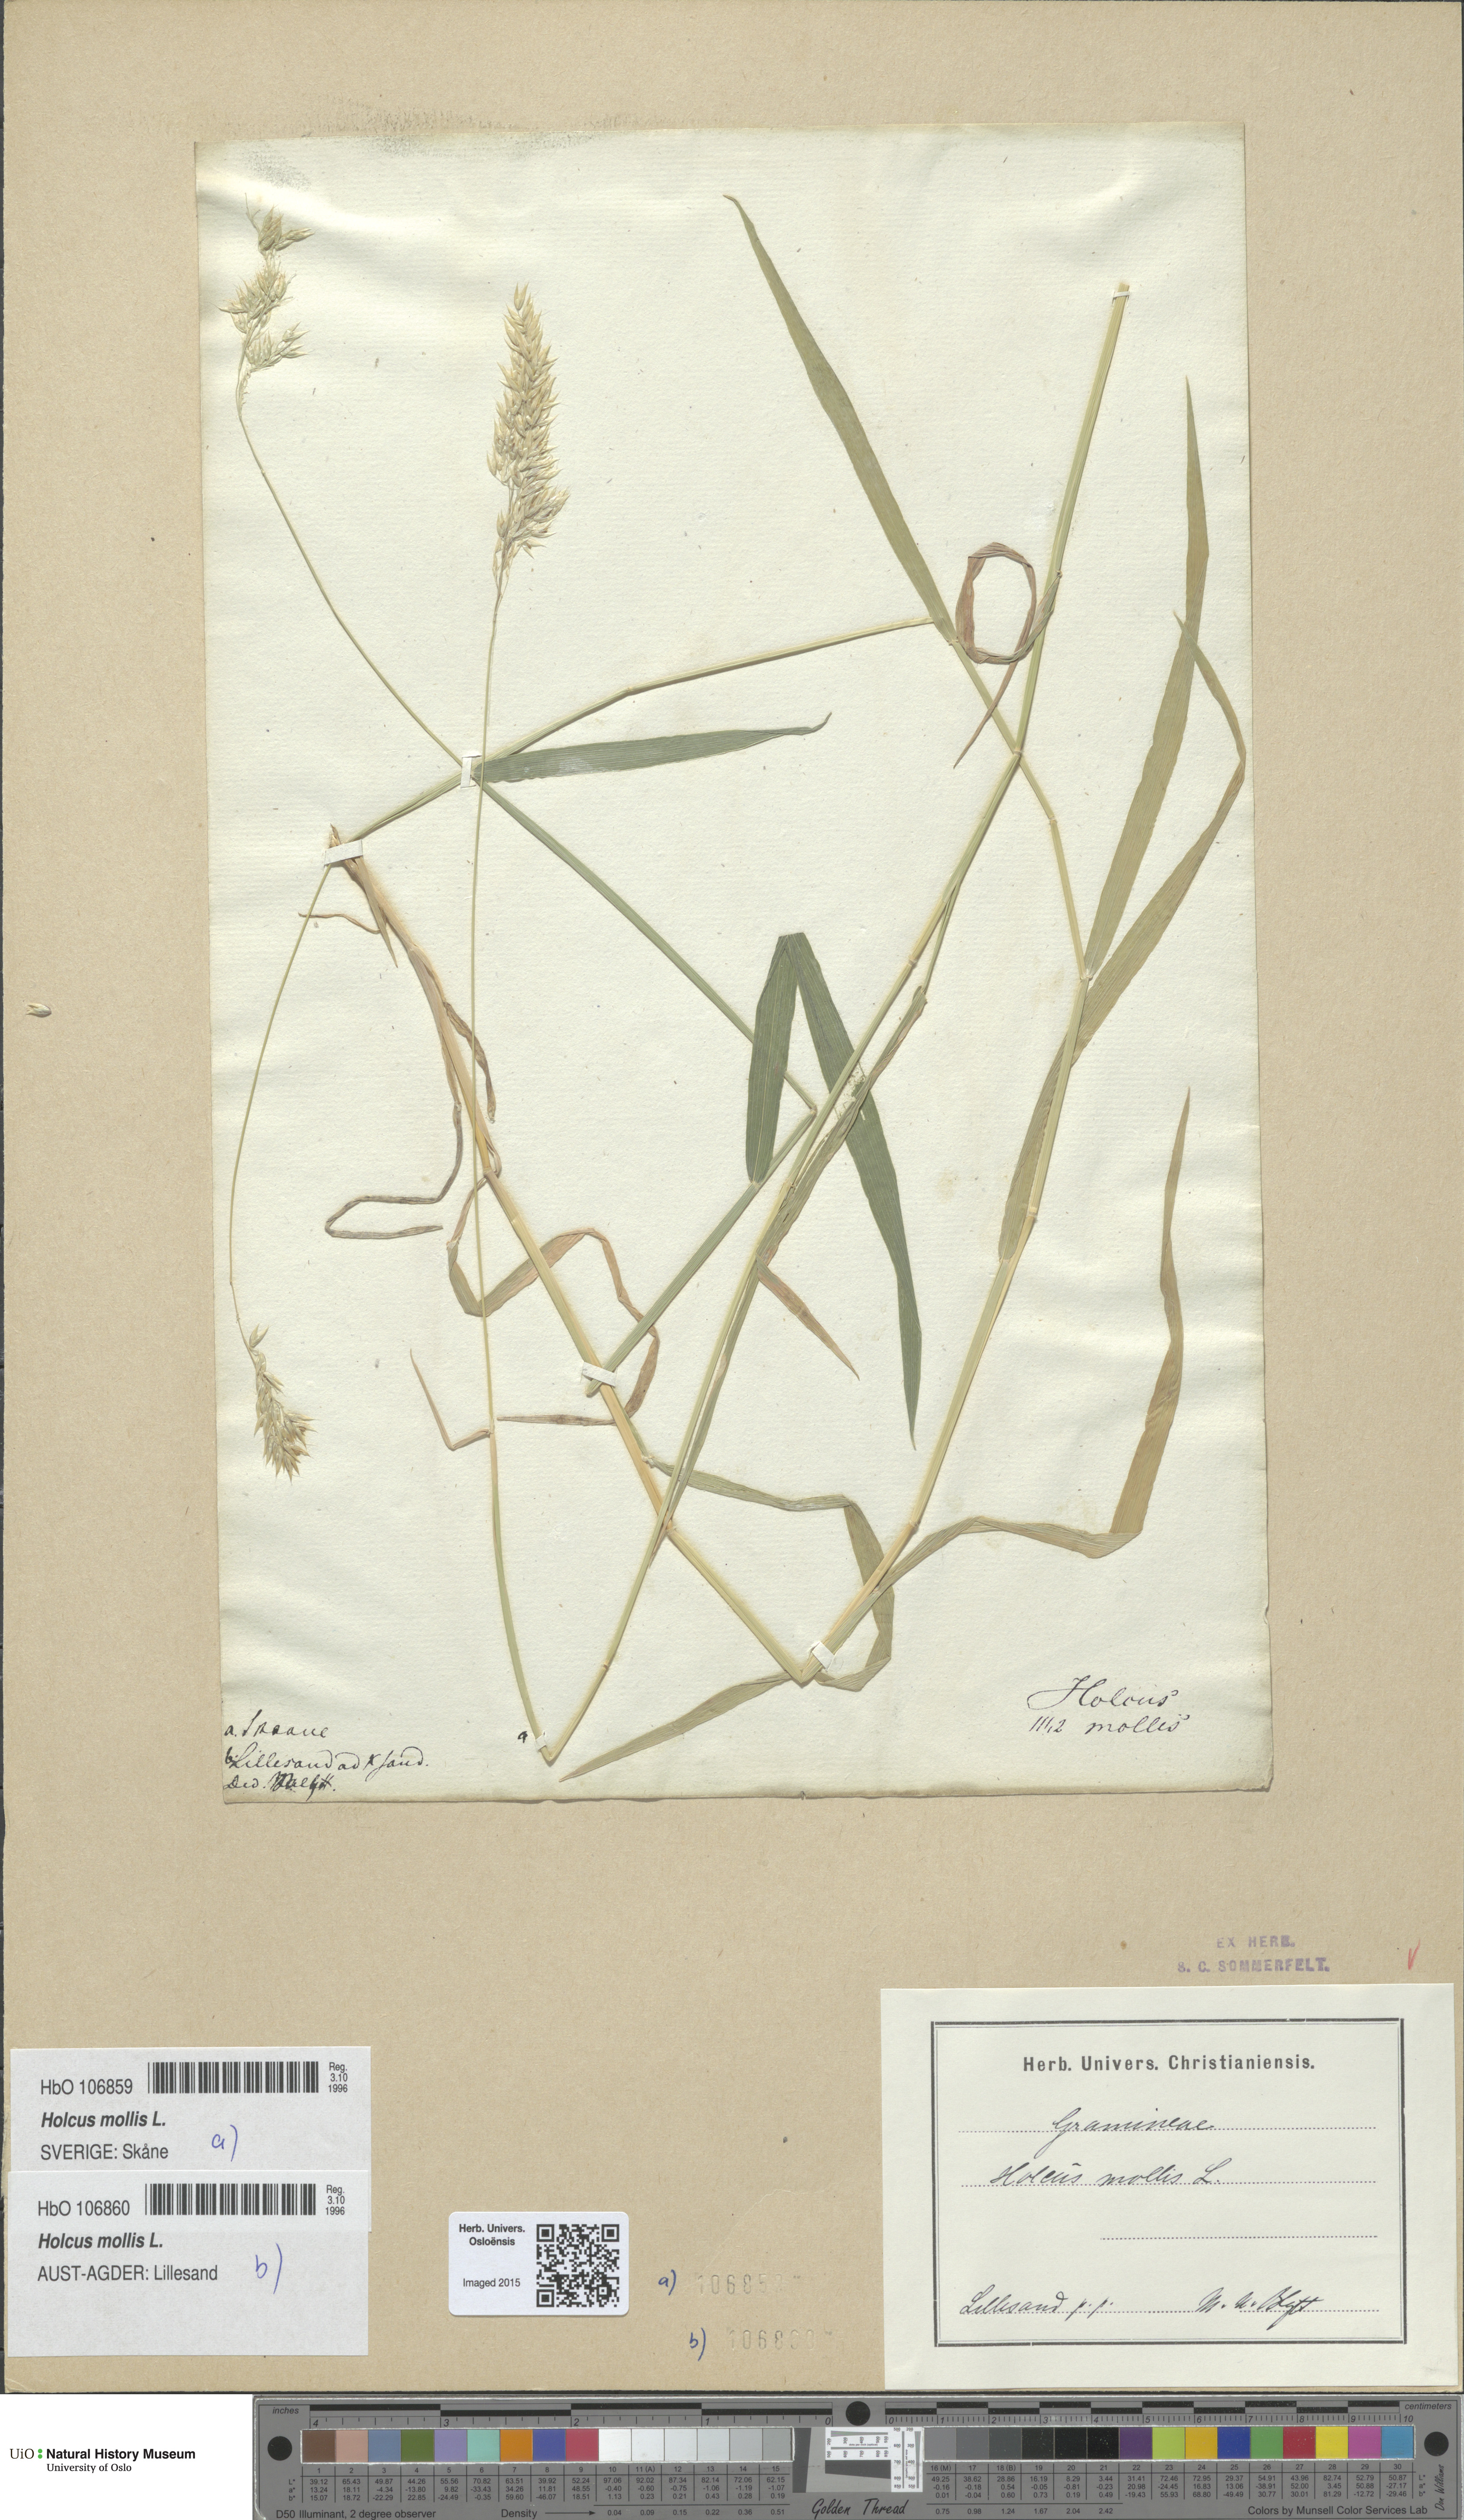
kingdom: Plantae
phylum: Tracheophyta
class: Liliopsida
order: Poales
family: Poaceae
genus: Holcus
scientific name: Holcus mollis
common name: Creeping velvetgrass
